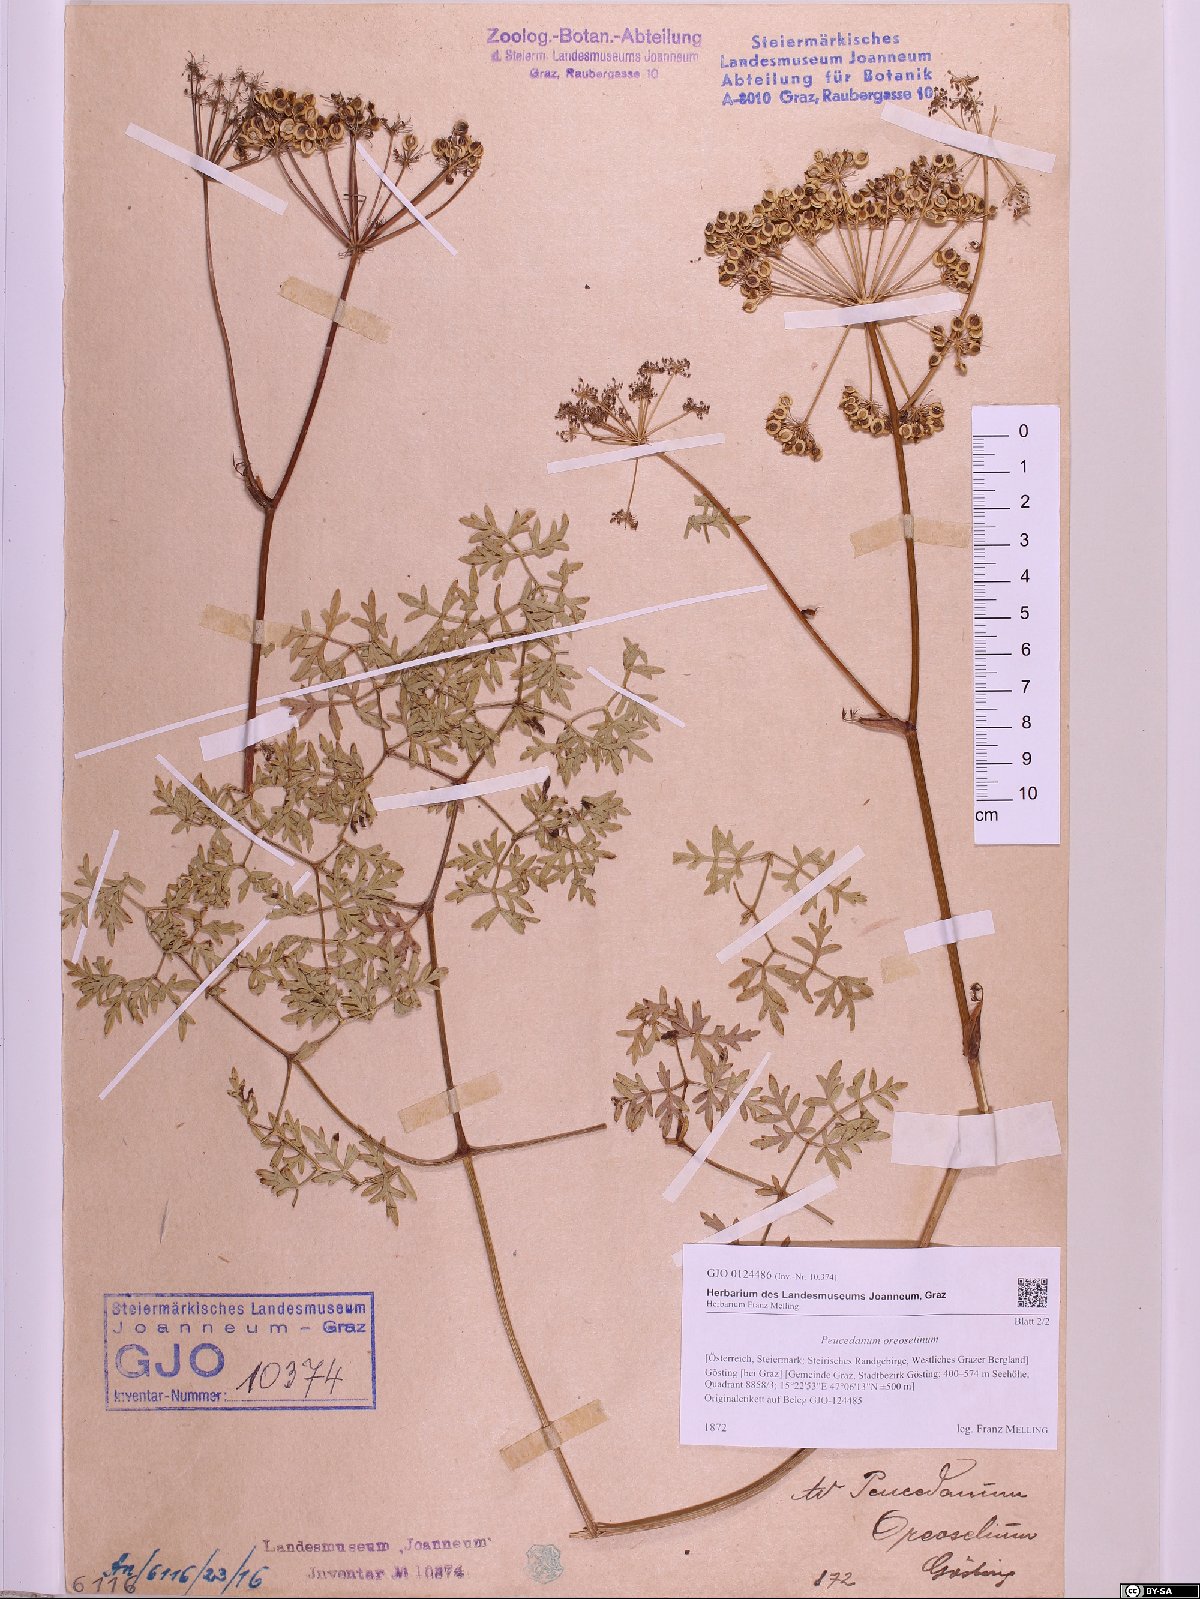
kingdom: Plantae
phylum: Tracheophyta
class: Magnoliopsida
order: Apiales
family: Apiaceae
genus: Oreoselinum
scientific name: Oreoselinum nigrum
